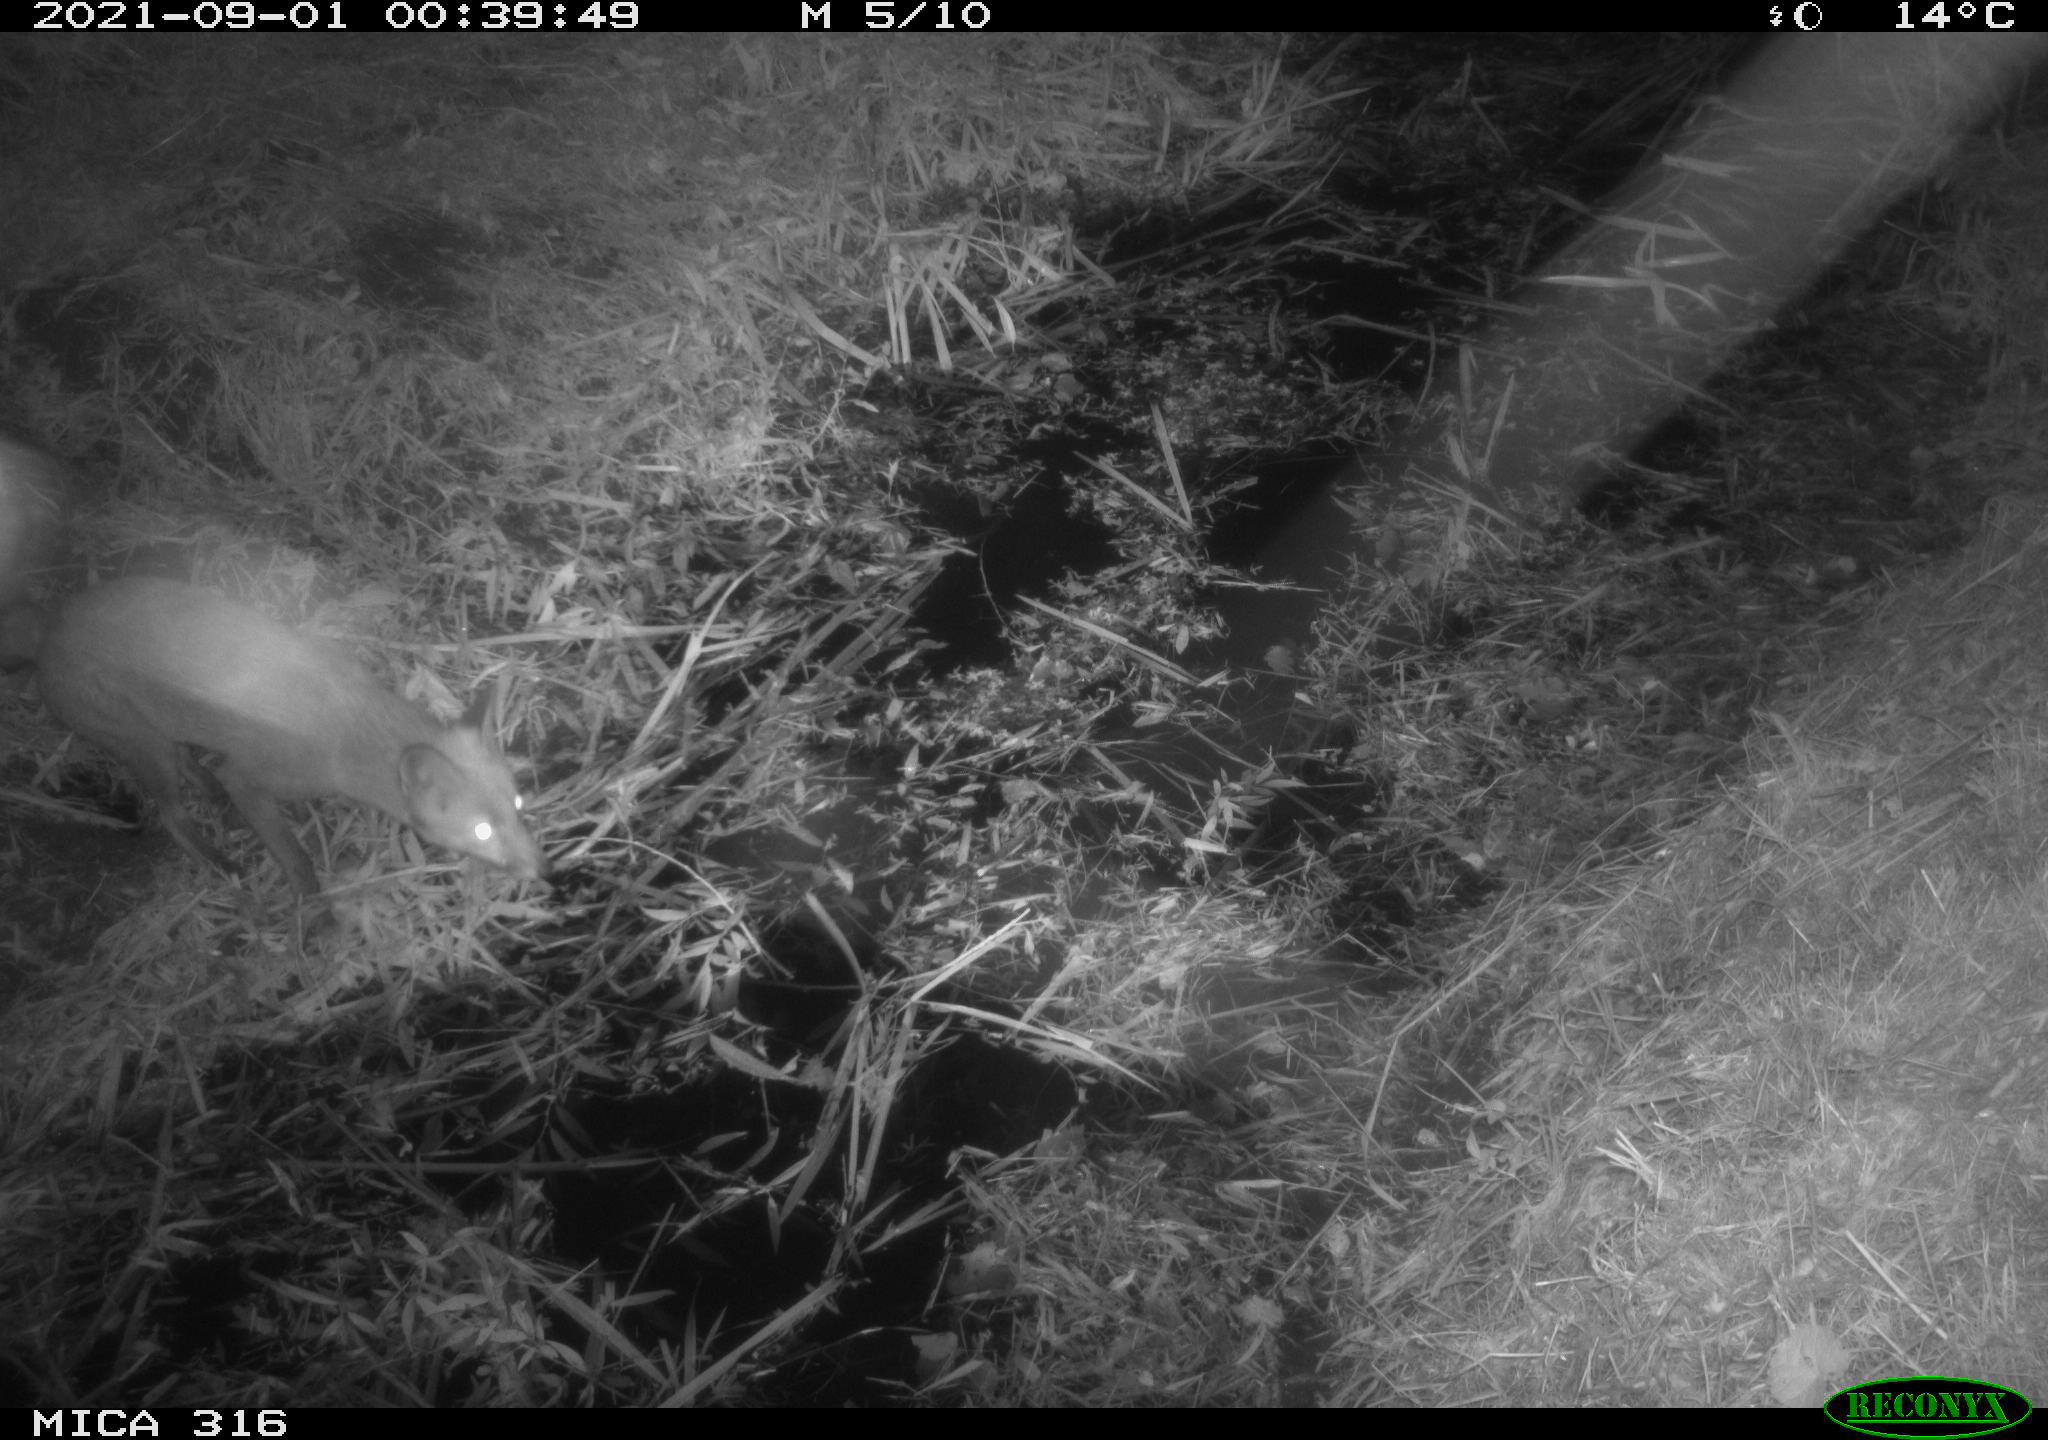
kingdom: Animalia
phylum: Chordata
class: Mammalia
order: Carnivora
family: Canidae
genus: Vulpes
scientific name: Vulpes vulpes
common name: Red fox
